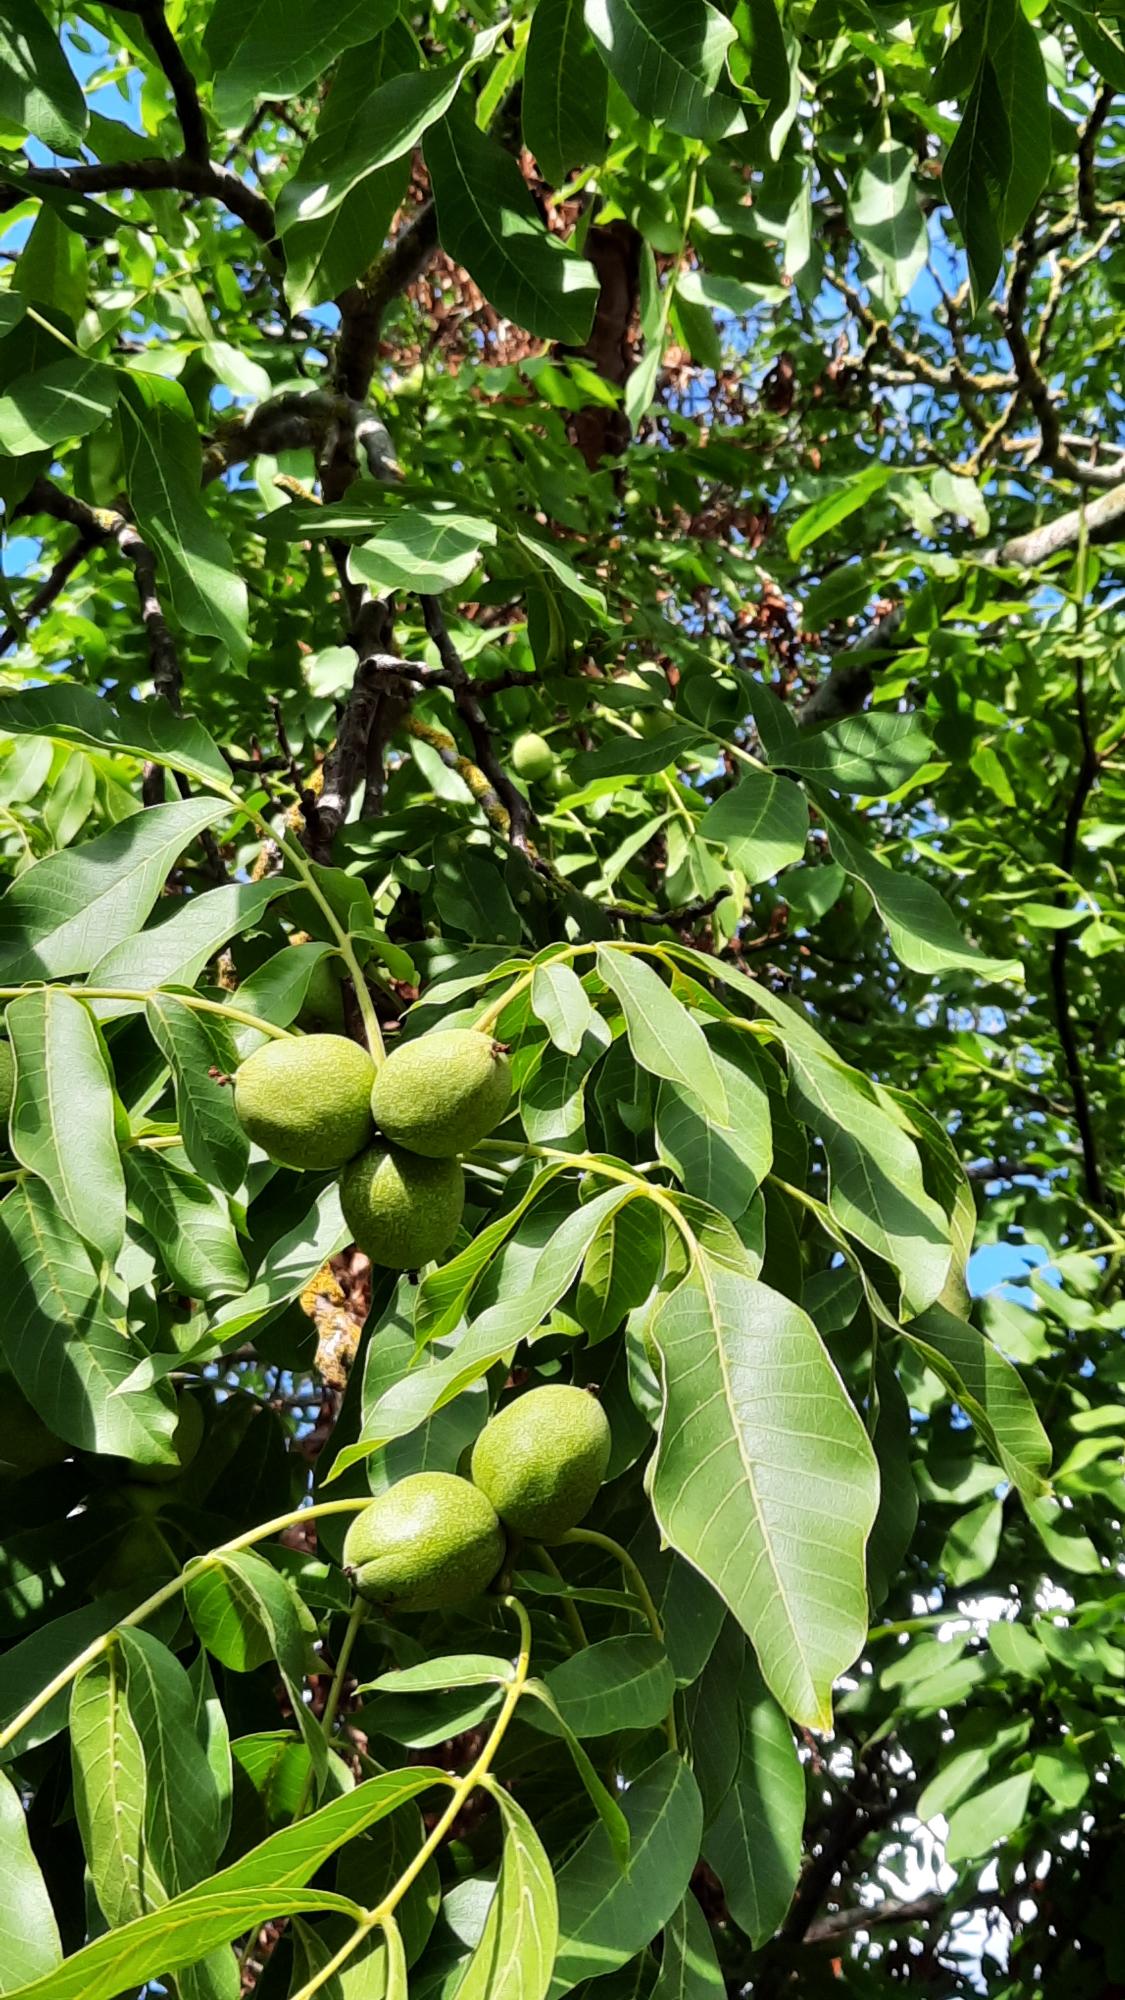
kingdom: Plantae
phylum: Tracheophyta
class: Magnoliopsida
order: Fagales
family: Juglandaceae
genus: Juglans
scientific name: Juglans regia
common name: Almindelig valnød
